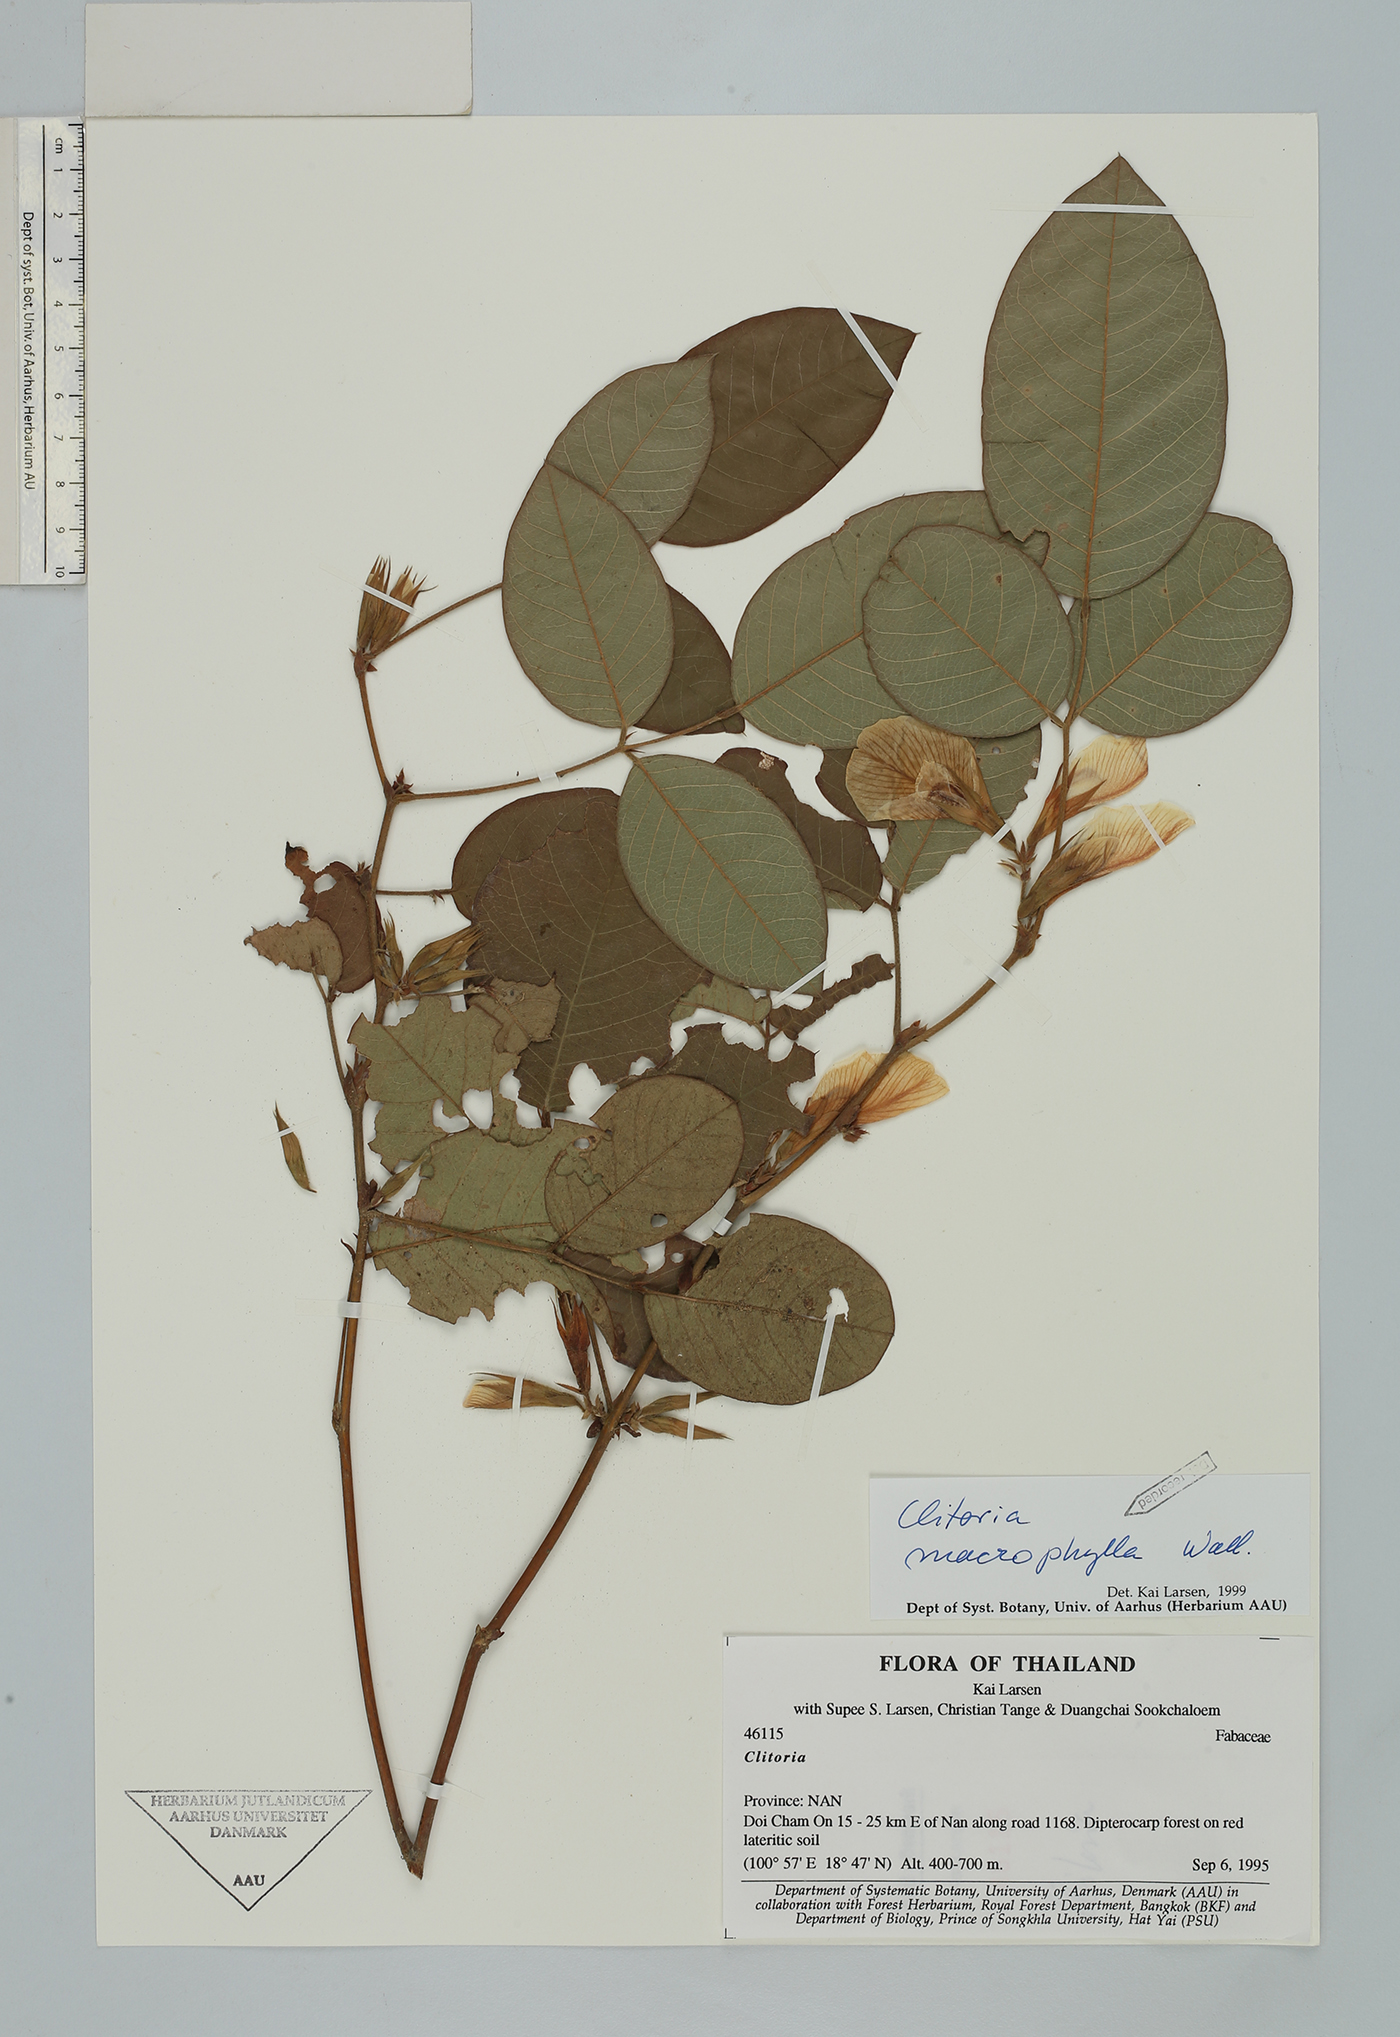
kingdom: Plantae
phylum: Tracheophyta
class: Magnoliopsida
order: Fabales
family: Fabaceae
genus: Clitoria
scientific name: Clitoria macrophylla
